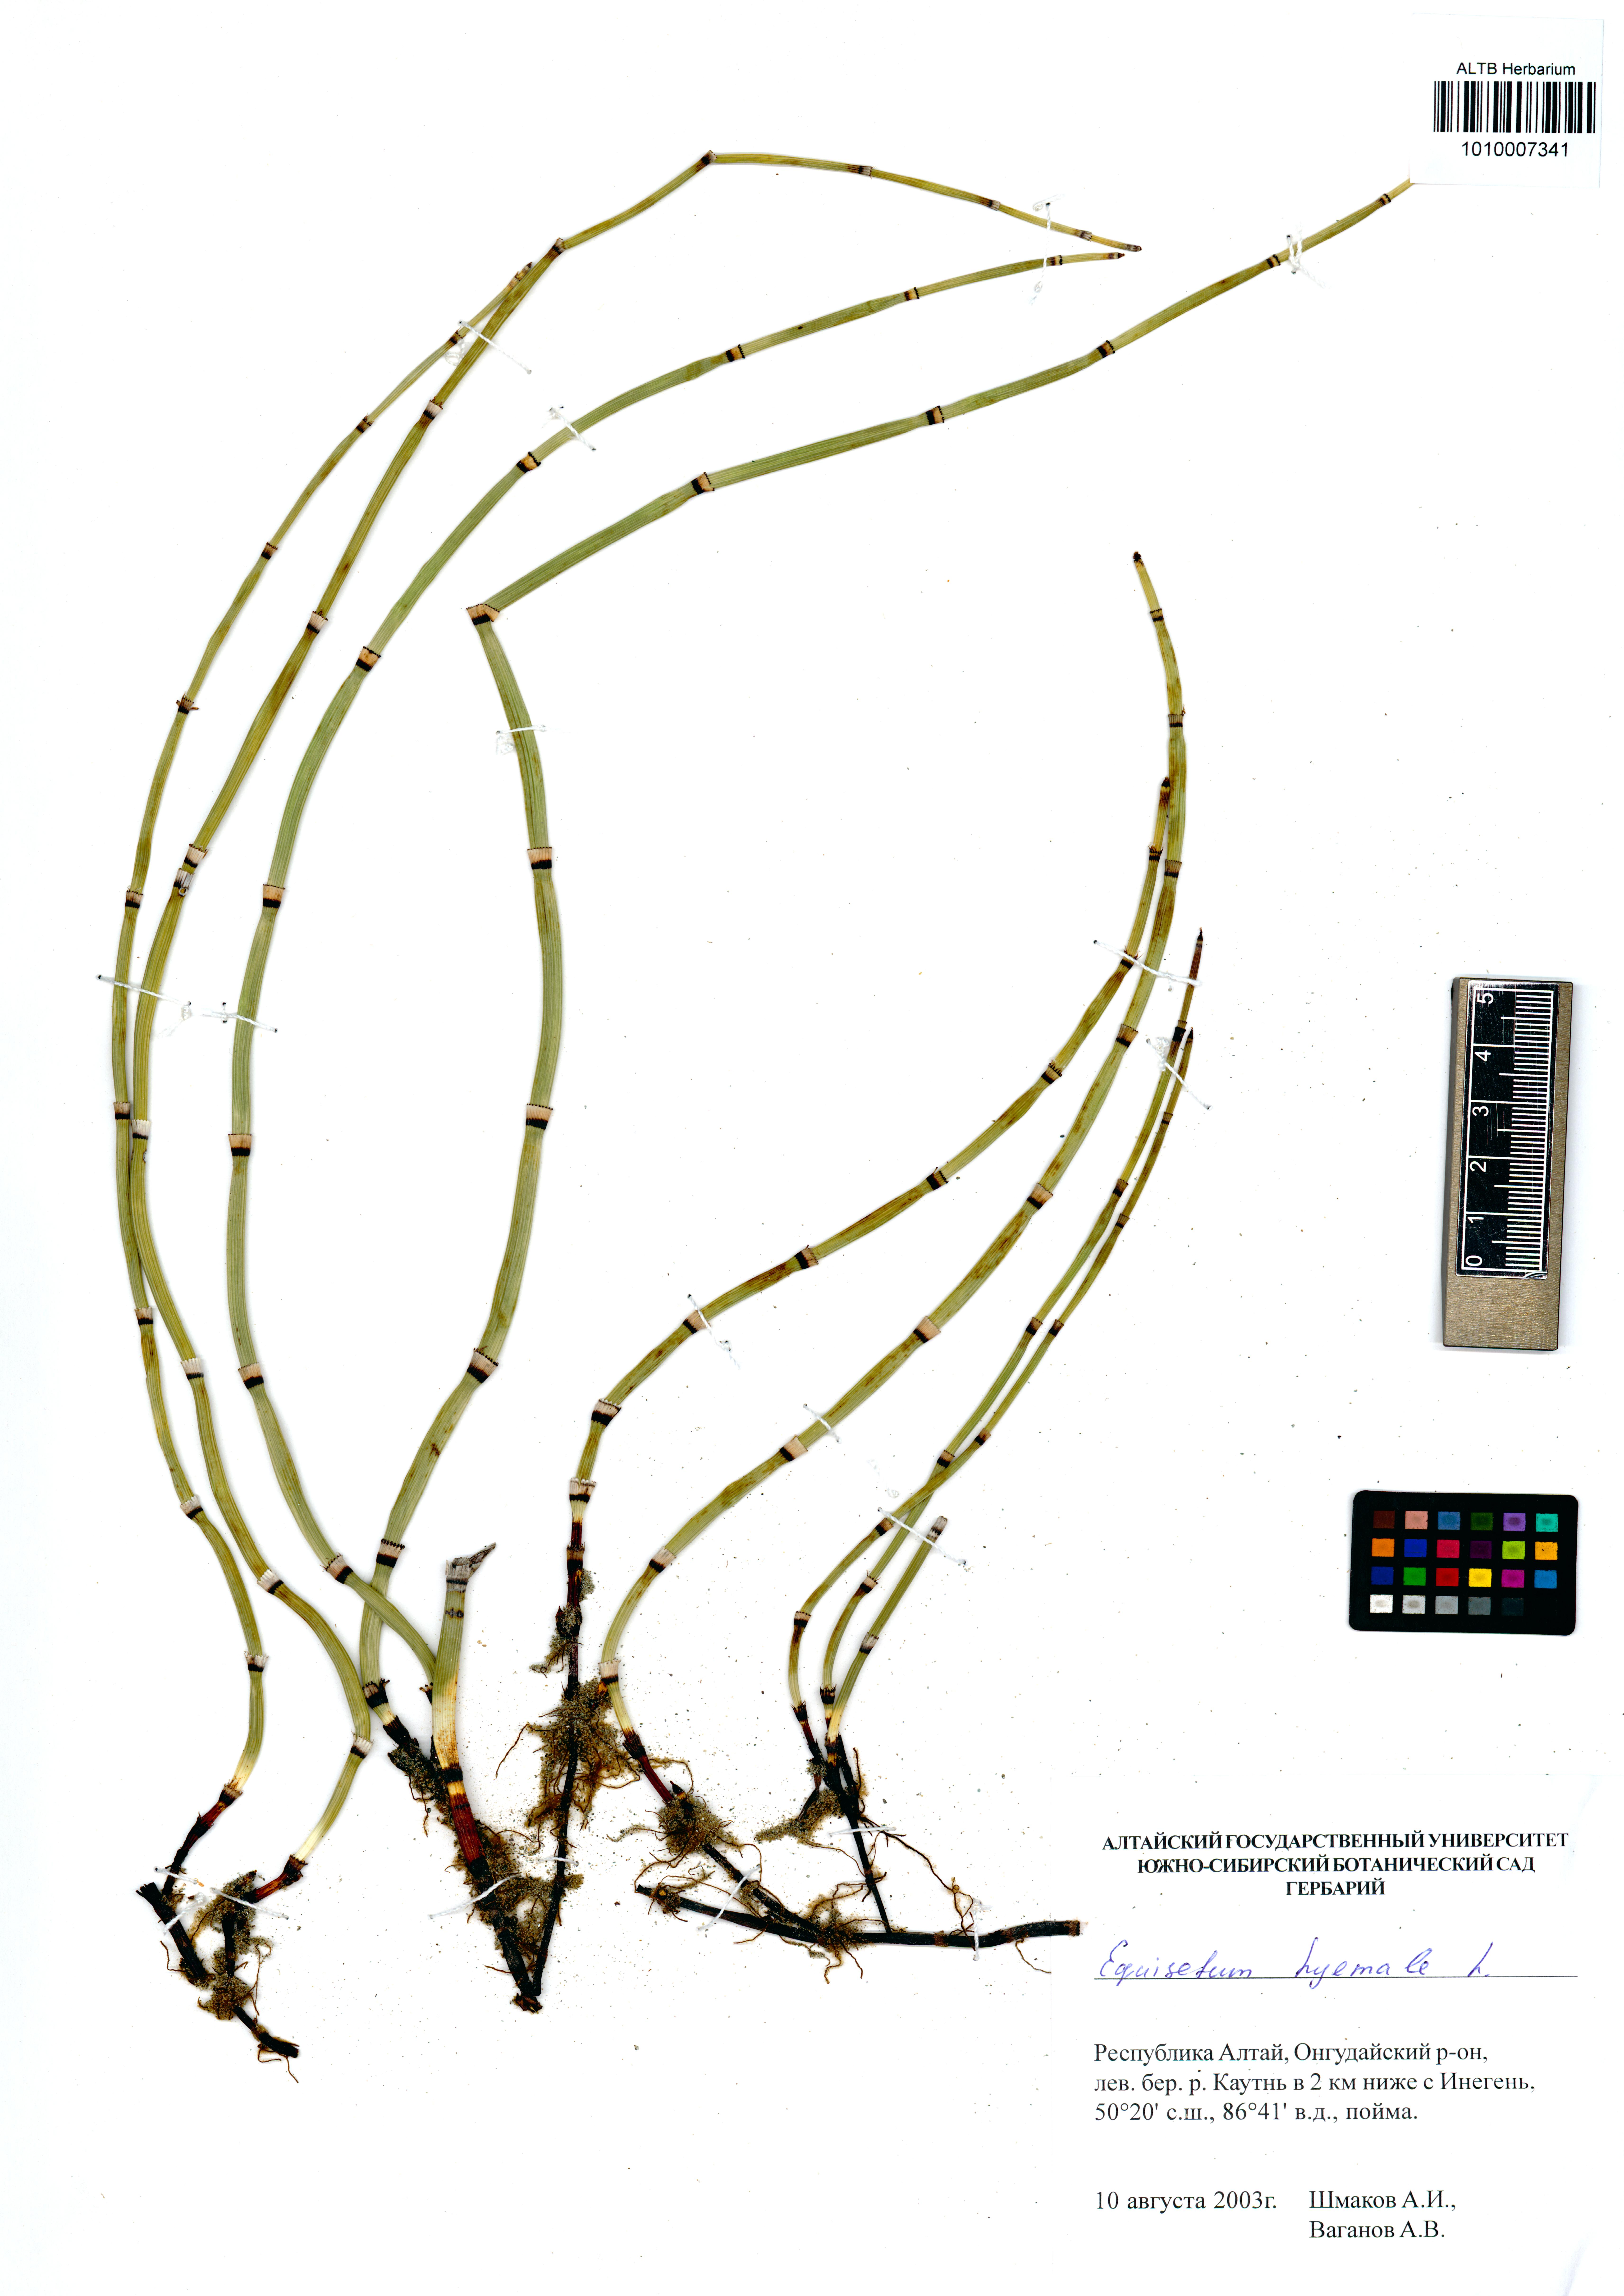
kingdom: Plantae
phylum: Tracheophyta
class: Polypodiopsida
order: Equisetales
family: Equisetaceae
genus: Equisetum
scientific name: Equisetum hyemale
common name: Rough horsetail
